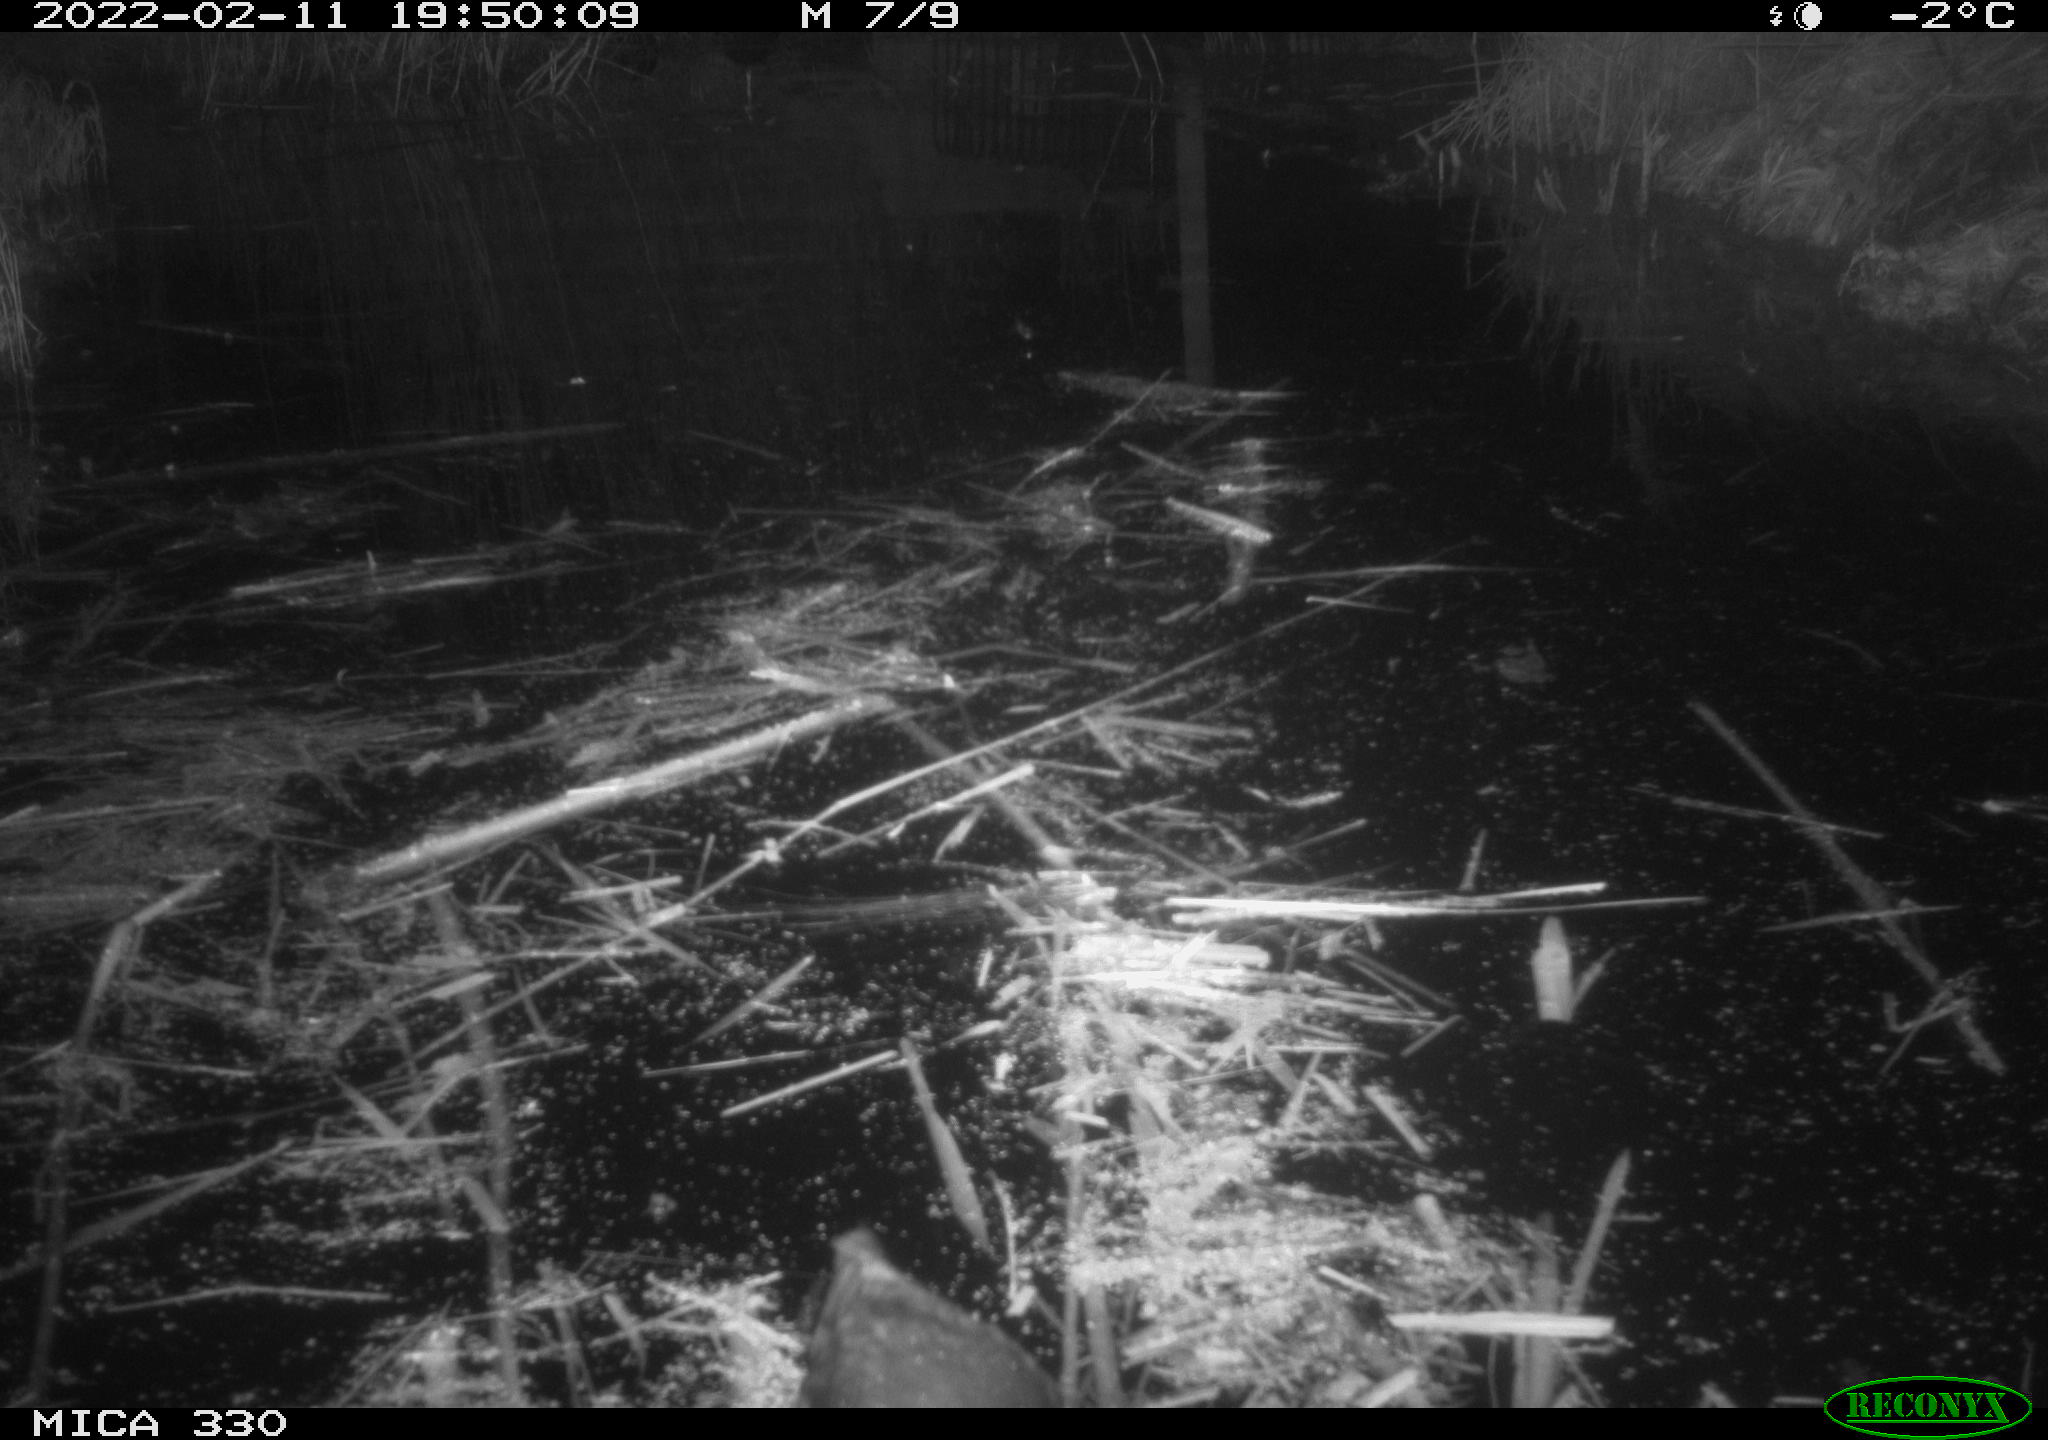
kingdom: Animalia
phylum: Chordata
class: Aves
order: Gruiformes
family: Rallidae
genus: Gallinula
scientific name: Gallinula chloropus
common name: Common moorhen
